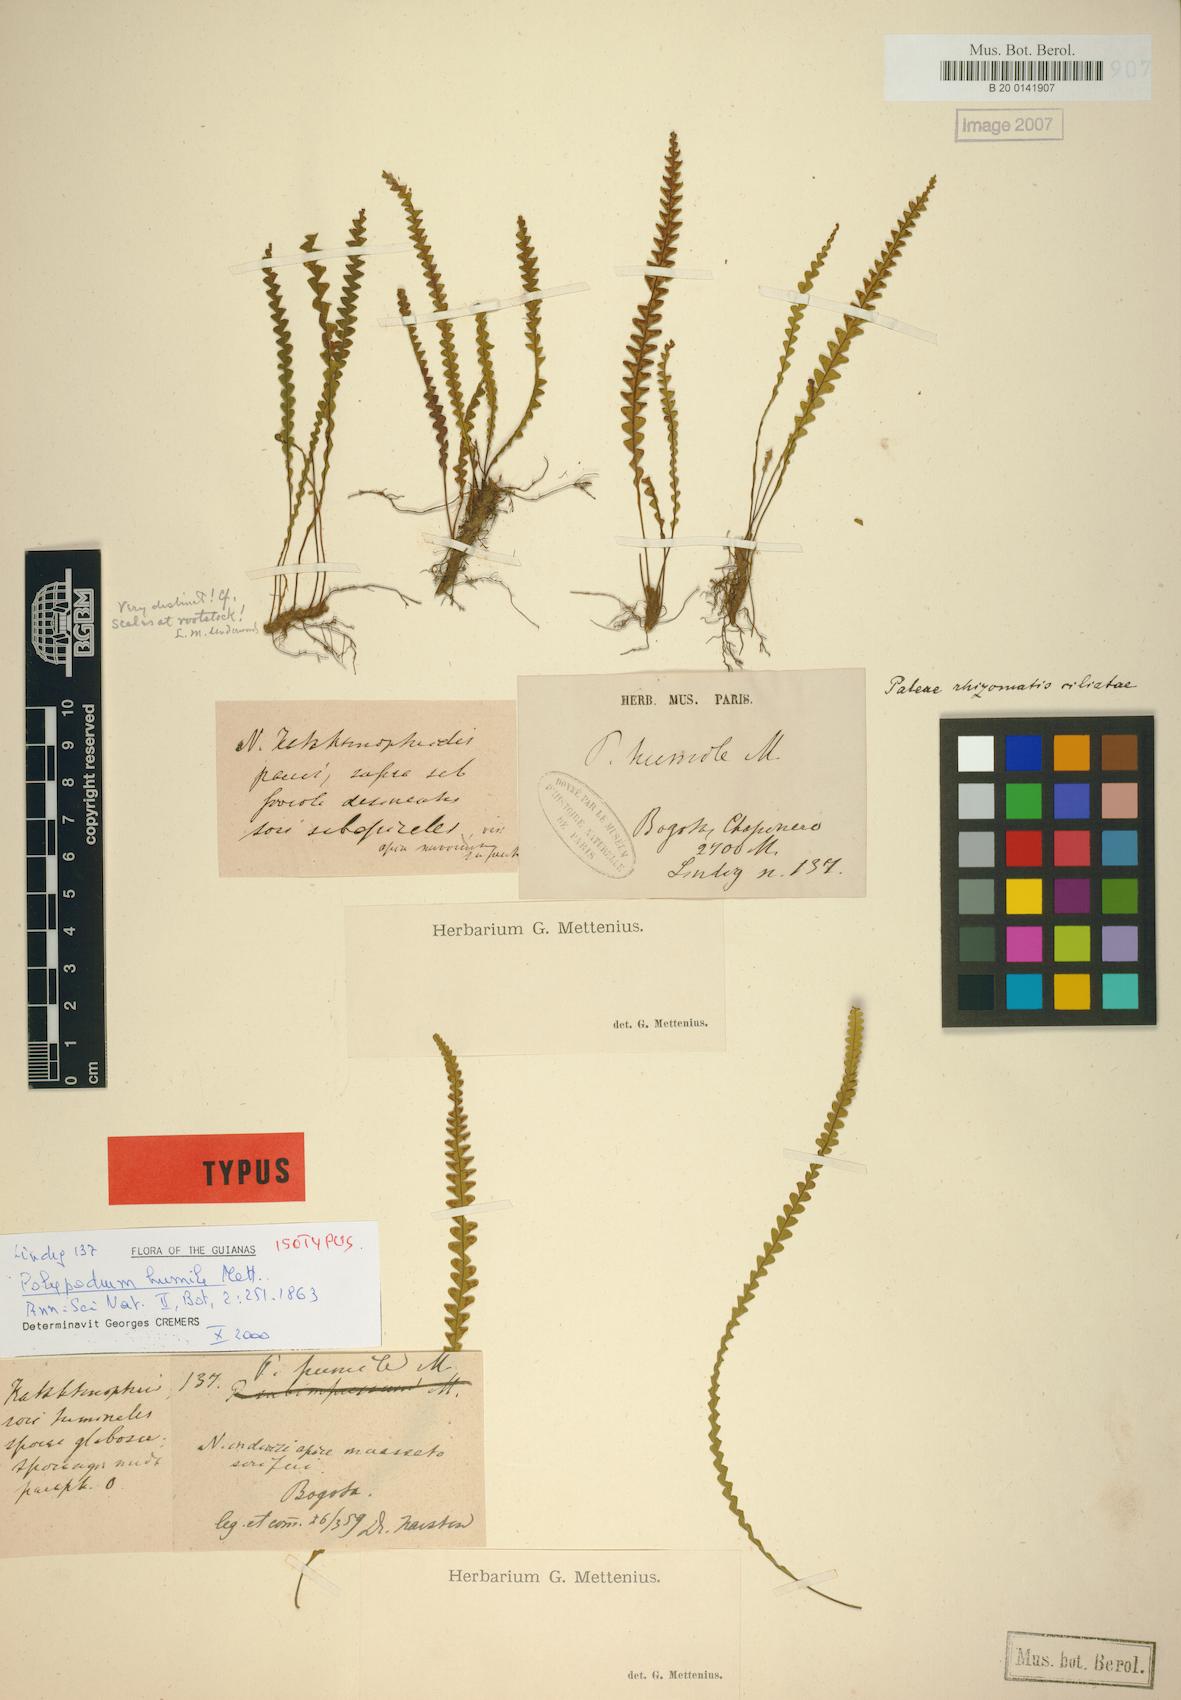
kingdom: Plantae
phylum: Tracheophyta
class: Polypodiopsida
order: Polypodiales
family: Polypodiaceae
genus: Lellingeria
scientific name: Lellingeria humilis
